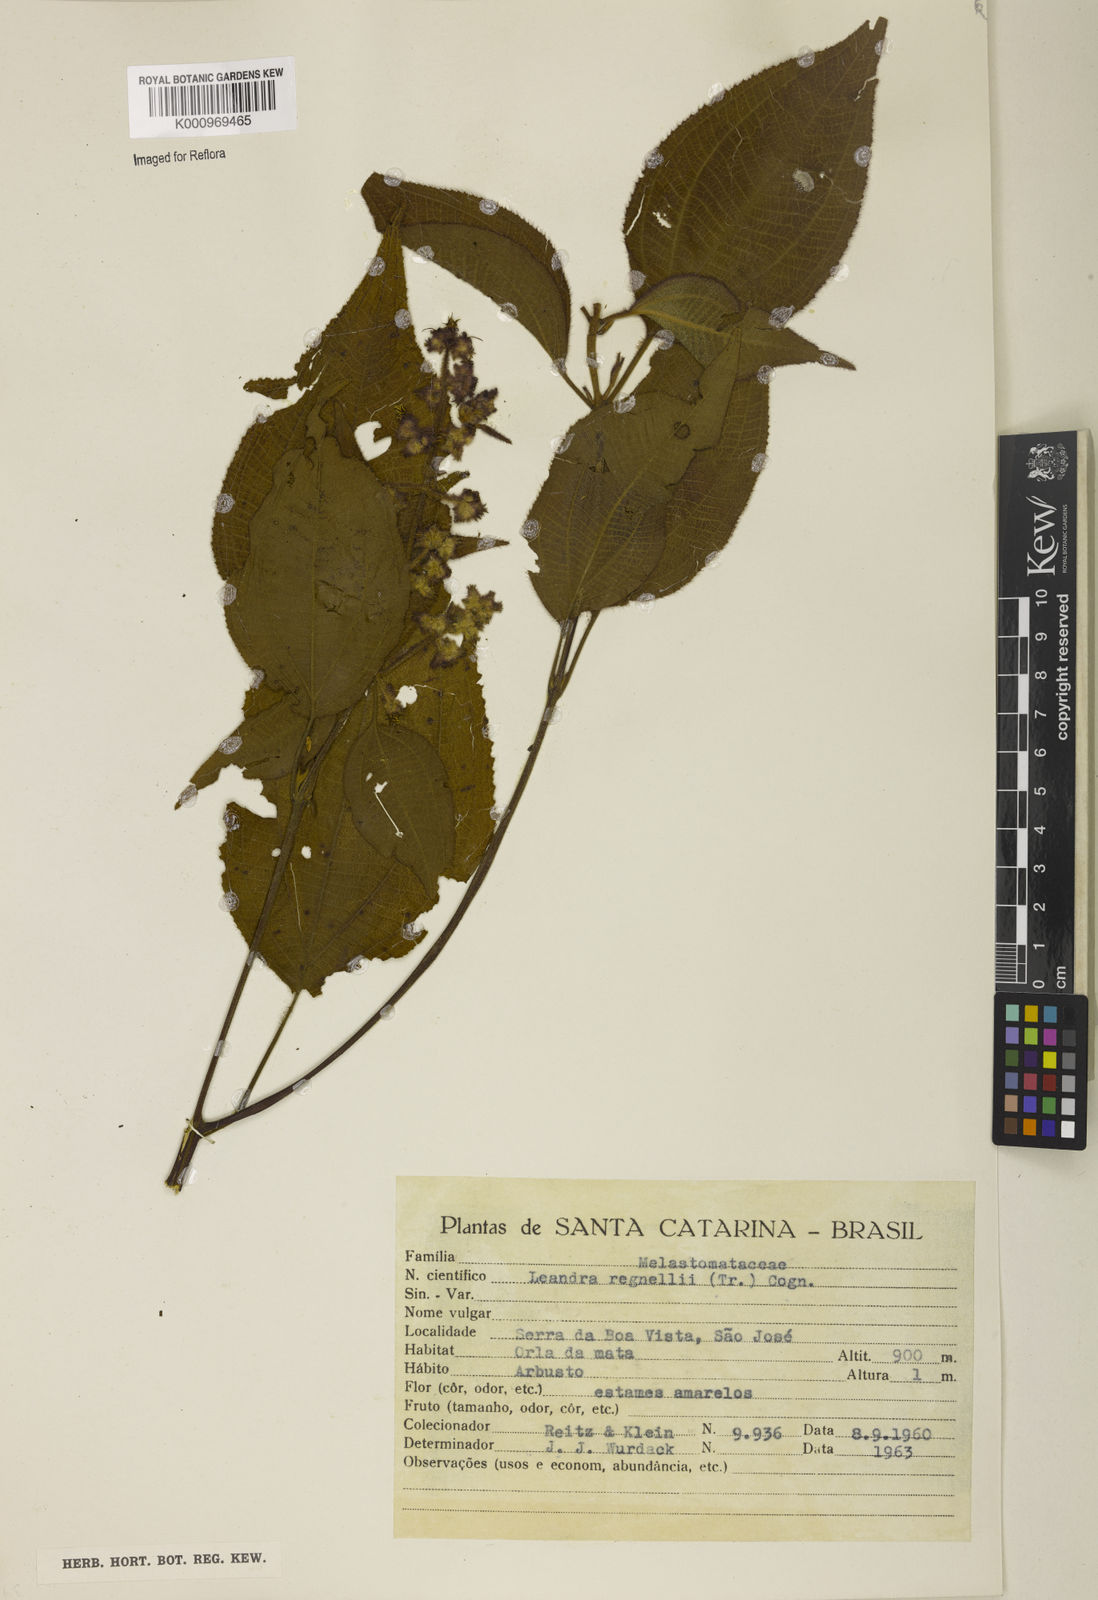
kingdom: Plantae
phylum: Tracheophyta
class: Magnoliopsida
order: Myrtales
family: Melastomataceae
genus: Miconia
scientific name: Miconia alterninervia
